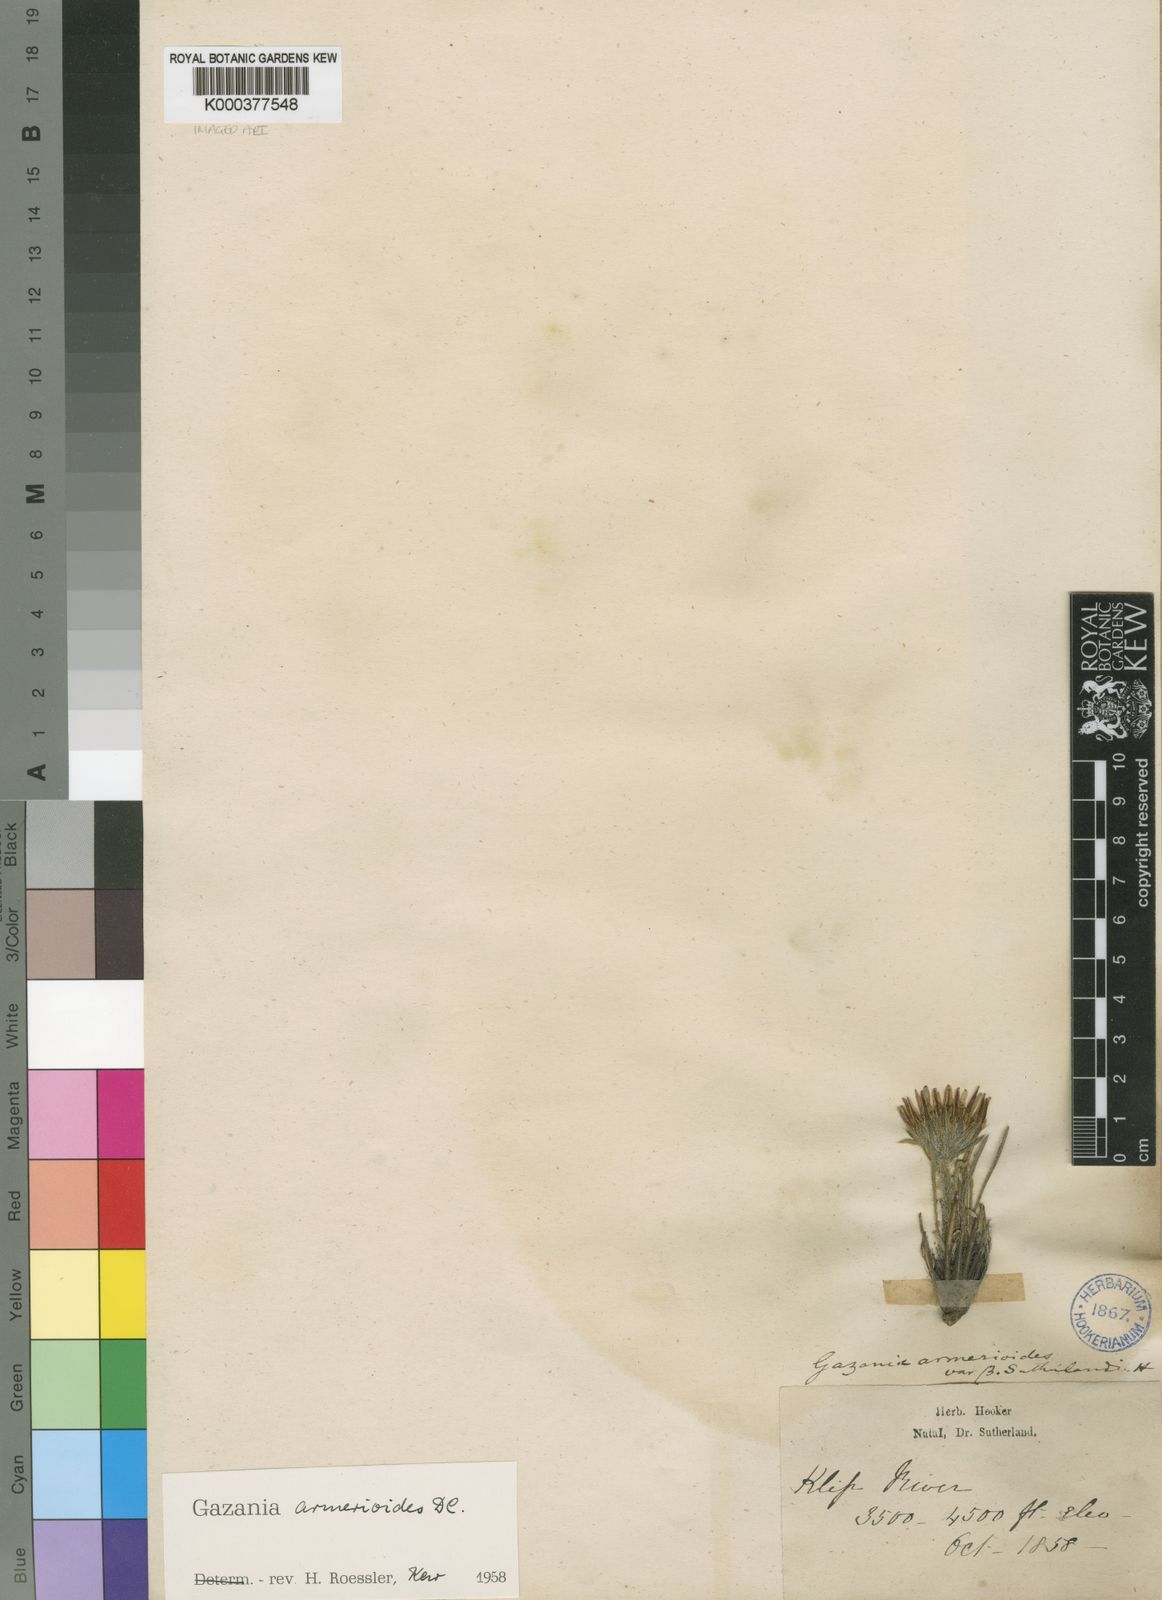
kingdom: Plantae
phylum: Tracheophyta
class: Magnoliopsida
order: Asterales
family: Asteraceae
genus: Roessleria
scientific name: Roessleria armerioides
